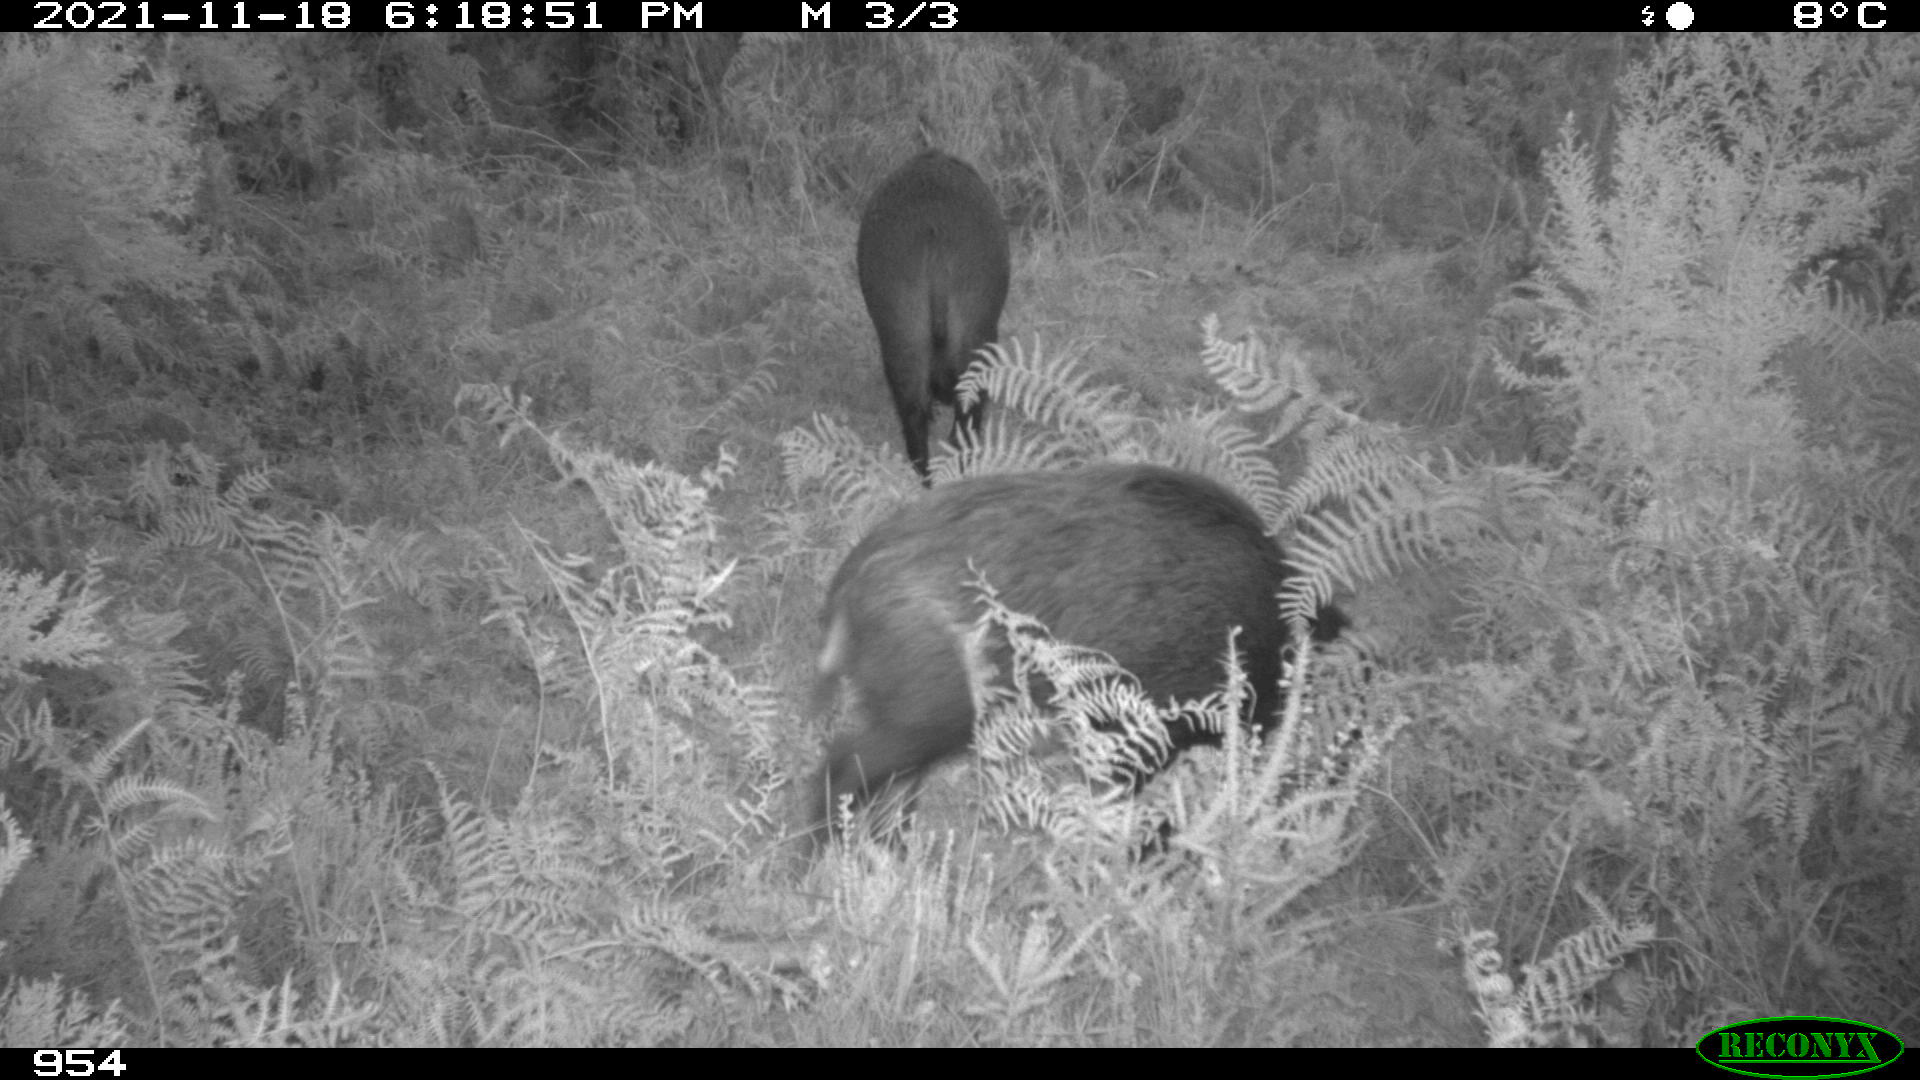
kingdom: Animalia
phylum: Chordata
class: Mammalia
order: Artiodactyla
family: Suidae
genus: Sus
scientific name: Sus scrofa
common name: Wild boar
